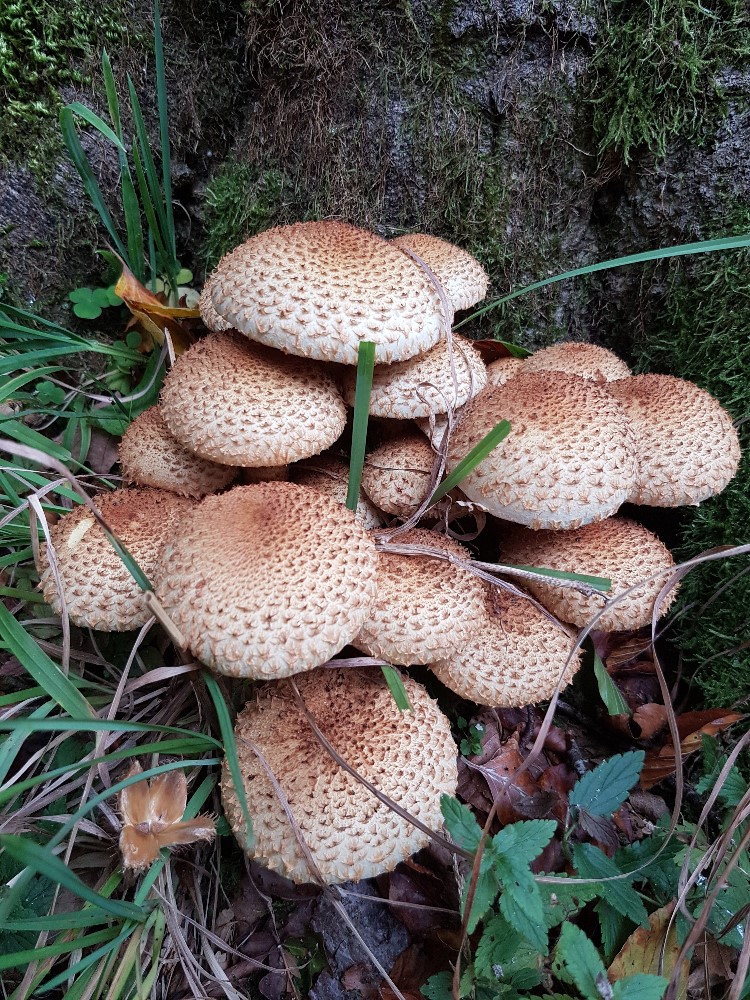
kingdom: Fungi
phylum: Basidiomycota
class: Agaricomycetes
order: Agaricales
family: Strophariaceae
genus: Pholiota
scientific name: Pholiota squarrosa
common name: krumskællet skælhat
